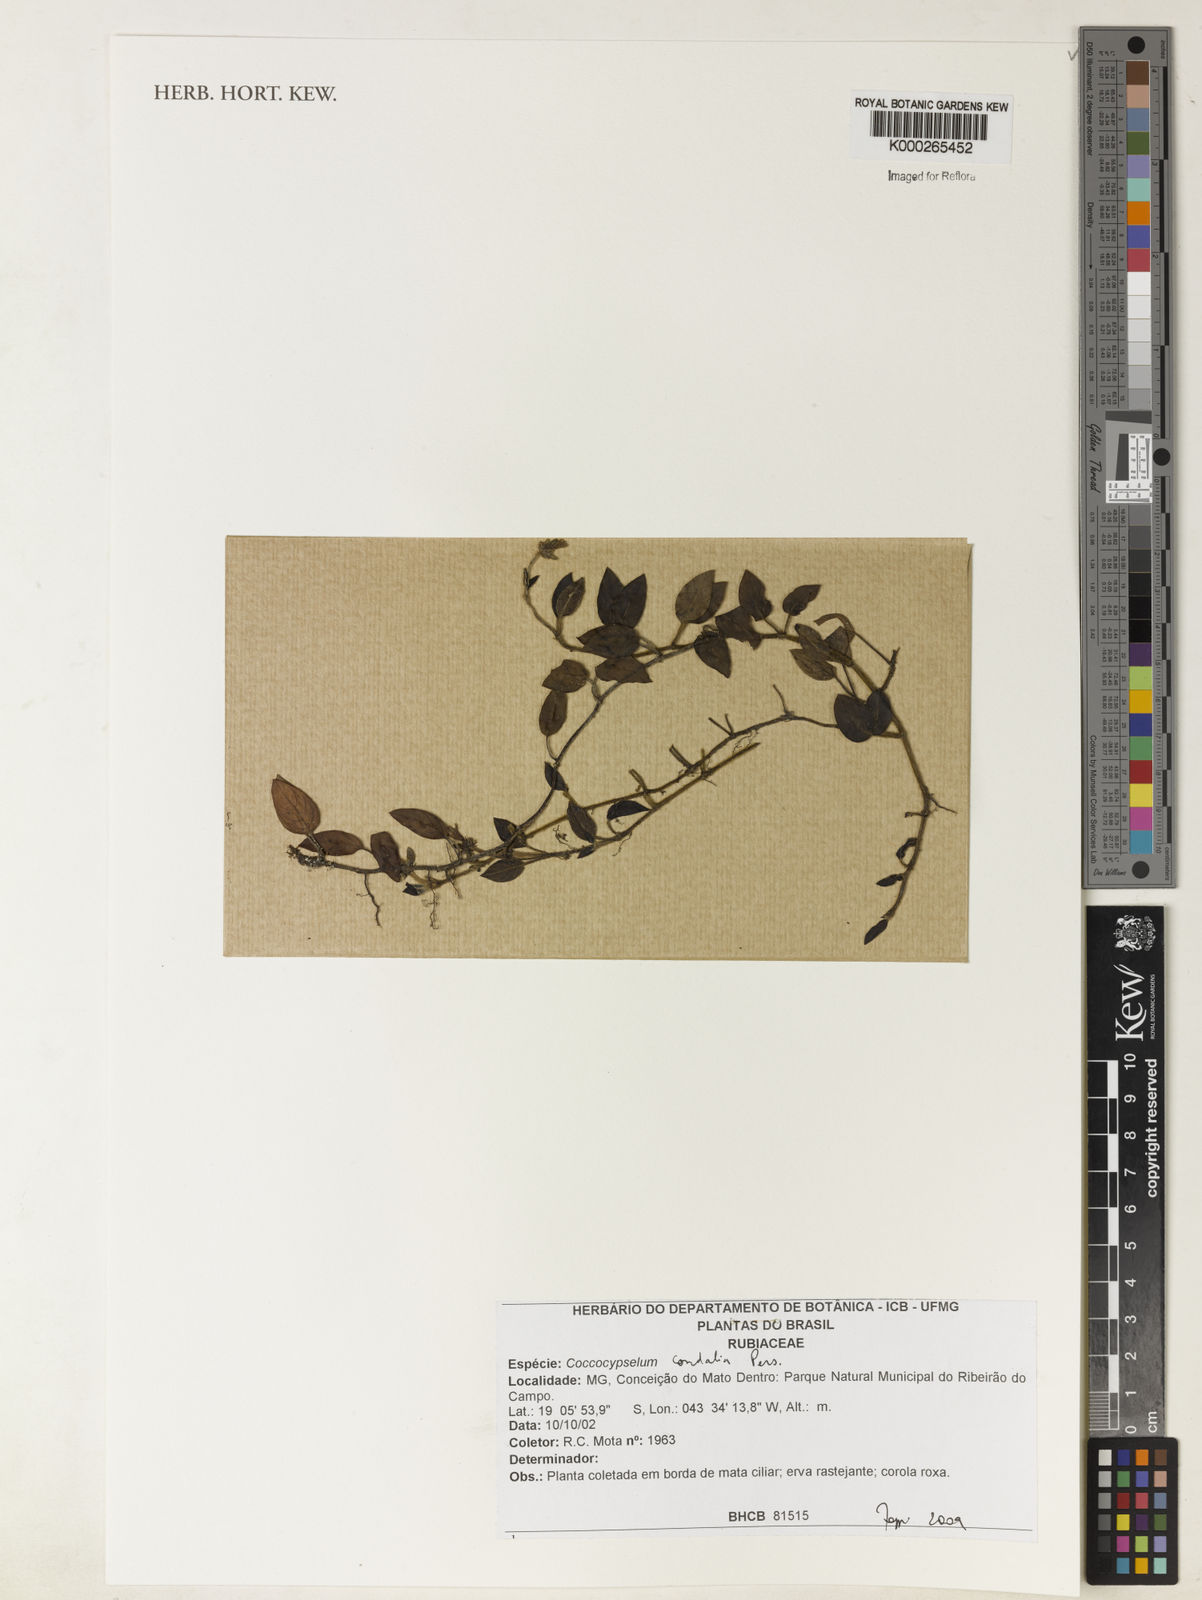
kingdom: Plantae
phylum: Tracheophyta
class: Magnoliopsida
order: Gentianales
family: Rubiaceae
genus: Coccocypselum
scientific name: Coccocypselum condalia
